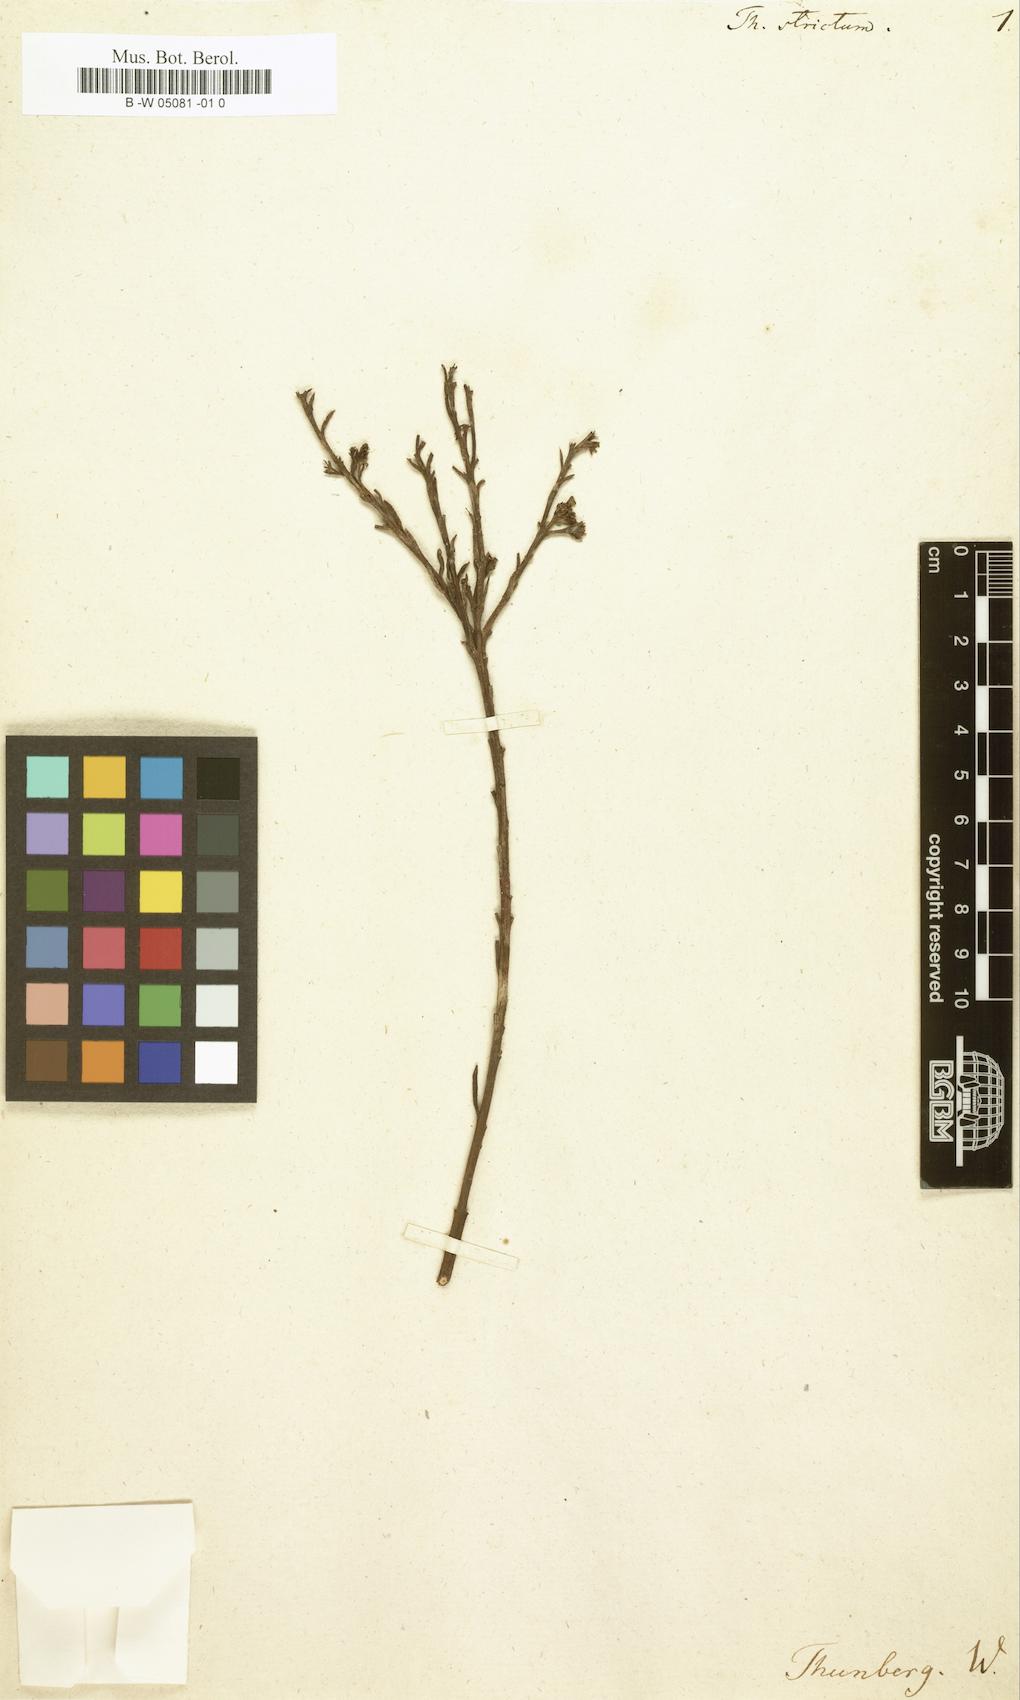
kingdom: Plantae
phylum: Tracheophyta
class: Magnoliopsida
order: Santalales
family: Thesiaceae
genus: Thesium
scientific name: Thesium strictum
